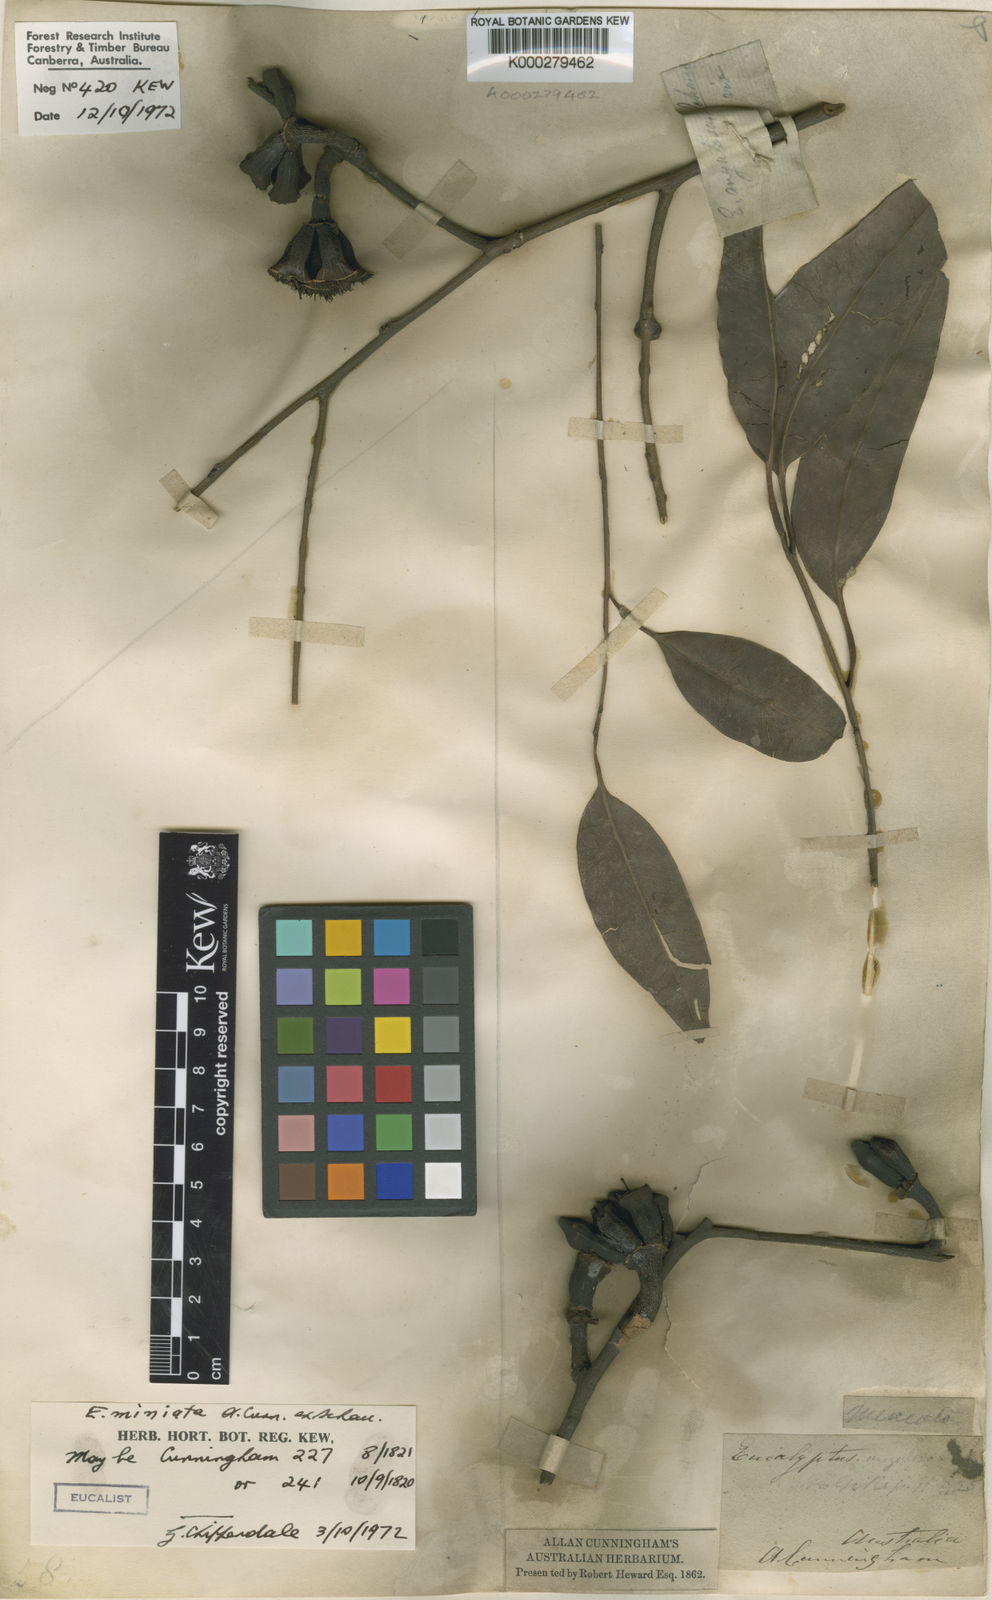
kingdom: Plantae
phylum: Tracheophyta
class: Magnoliopsida
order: Myrtales
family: Myrtaceae
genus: Eucalyptus
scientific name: Eucalyptus miniata
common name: Darwin-woollybutt
